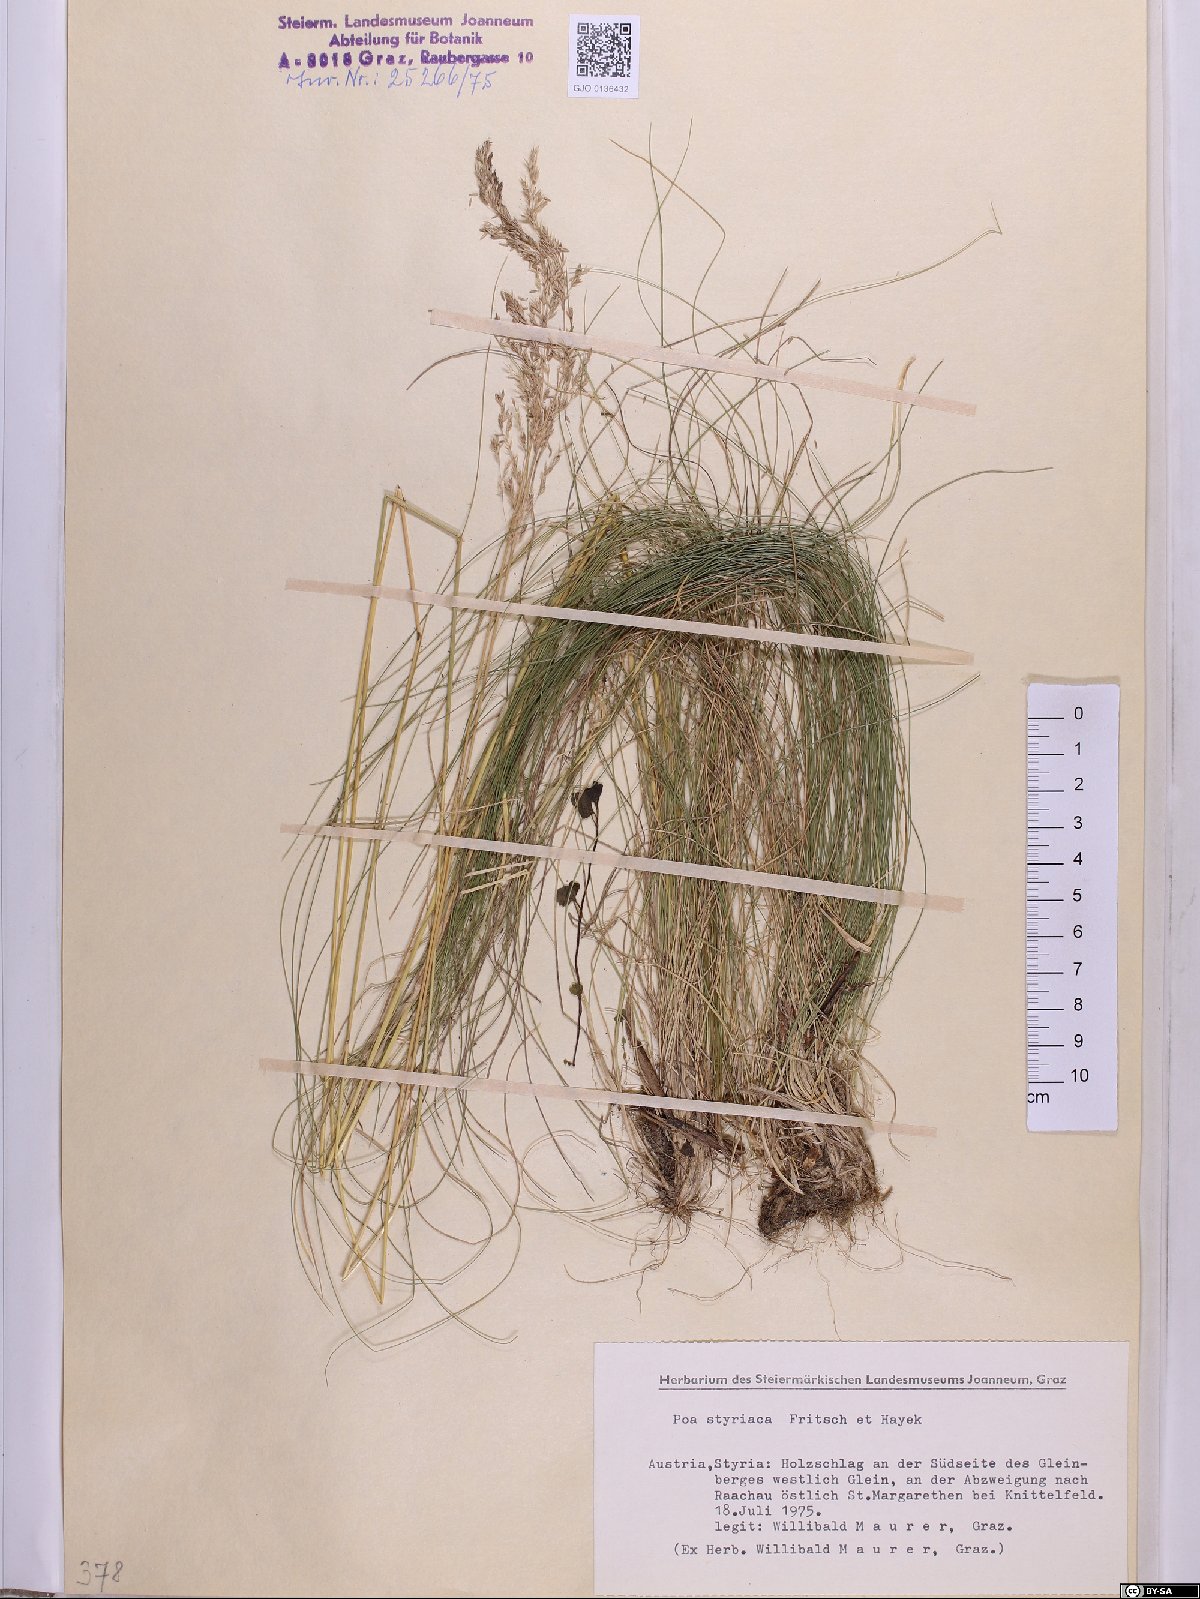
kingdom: Plantae
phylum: Tracheophyta
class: Liliopsida
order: Poales
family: Poaceae
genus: Poa
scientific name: Poa stiriaca
